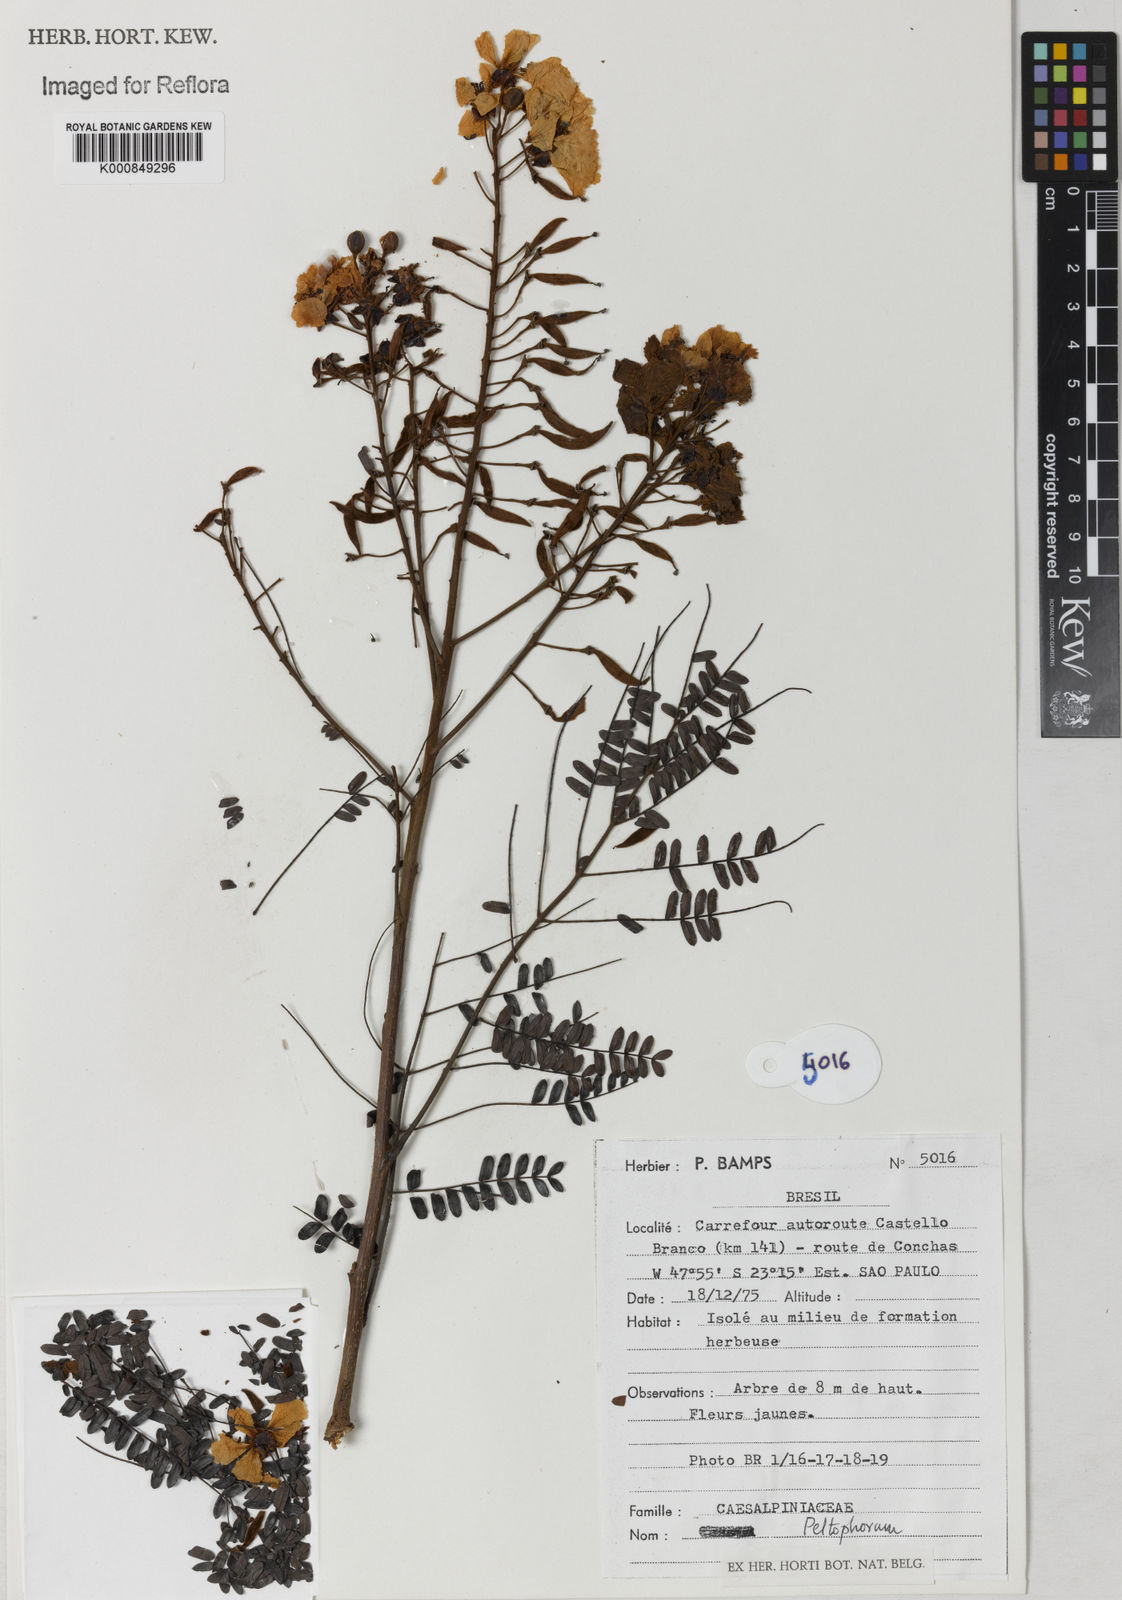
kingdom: Plantae
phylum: Tracheophyta
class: Magnoliopsida
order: Fabales
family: Fabaceae
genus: Peltophorum
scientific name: Peltophorum
